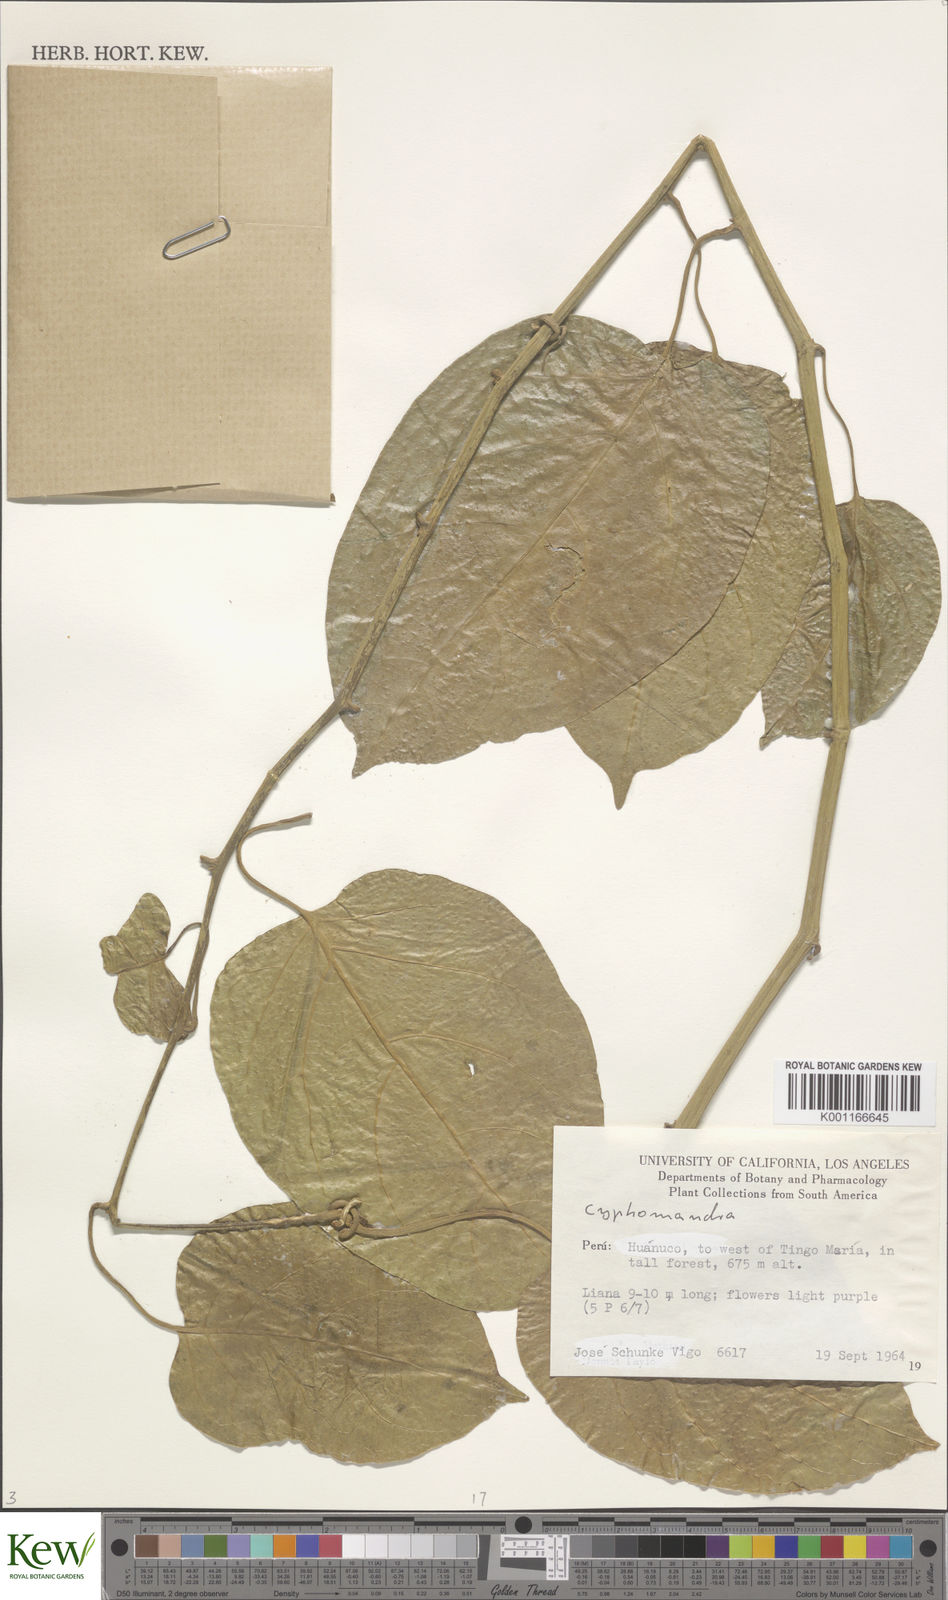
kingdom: Plantae
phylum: Tracheophyta
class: Magnoliopsida
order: Solanales
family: Solanaceae
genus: Solanum
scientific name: Solanum
